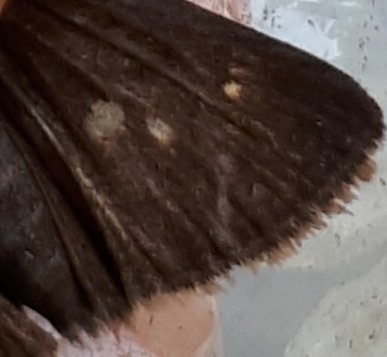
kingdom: Animalia
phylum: Arthropoda
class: Insecta
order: Lepidoptera
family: Hesperiidae
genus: Euphyes
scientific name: Euphyes vestris
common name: Dun Skipper
